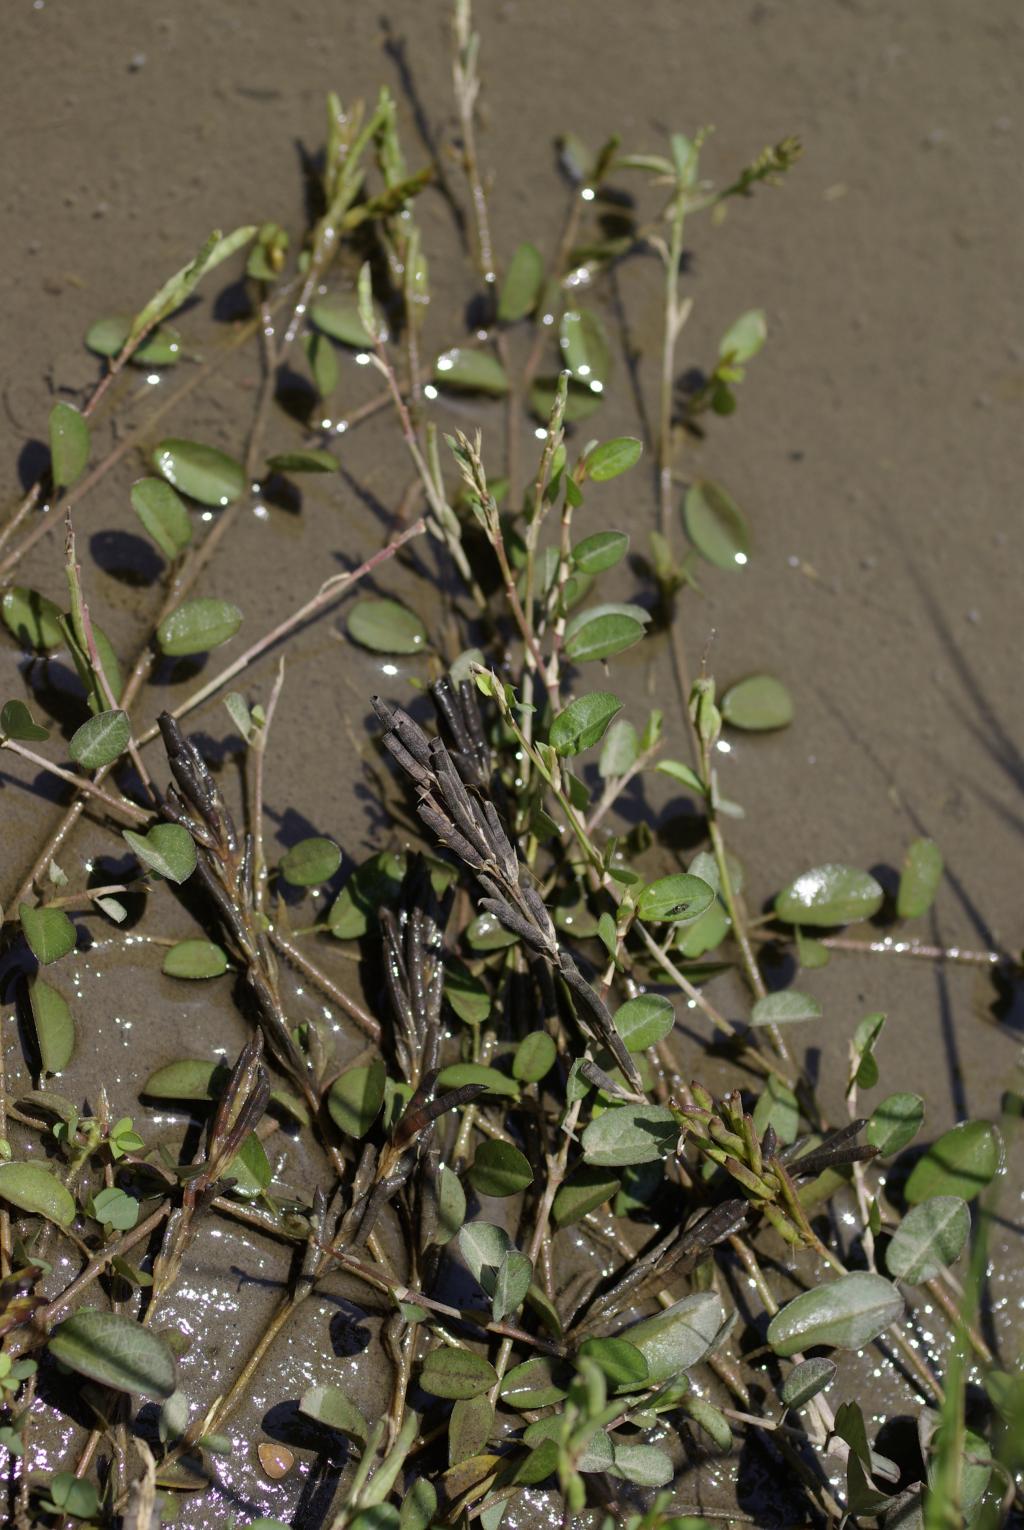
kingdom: Plantae
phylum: Tracheophyta
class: Magnoliopsida
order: Fabales
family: Fabaceae
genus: Alysicarpus
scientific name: Alysicarpus vaginalis
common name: White moneywort
